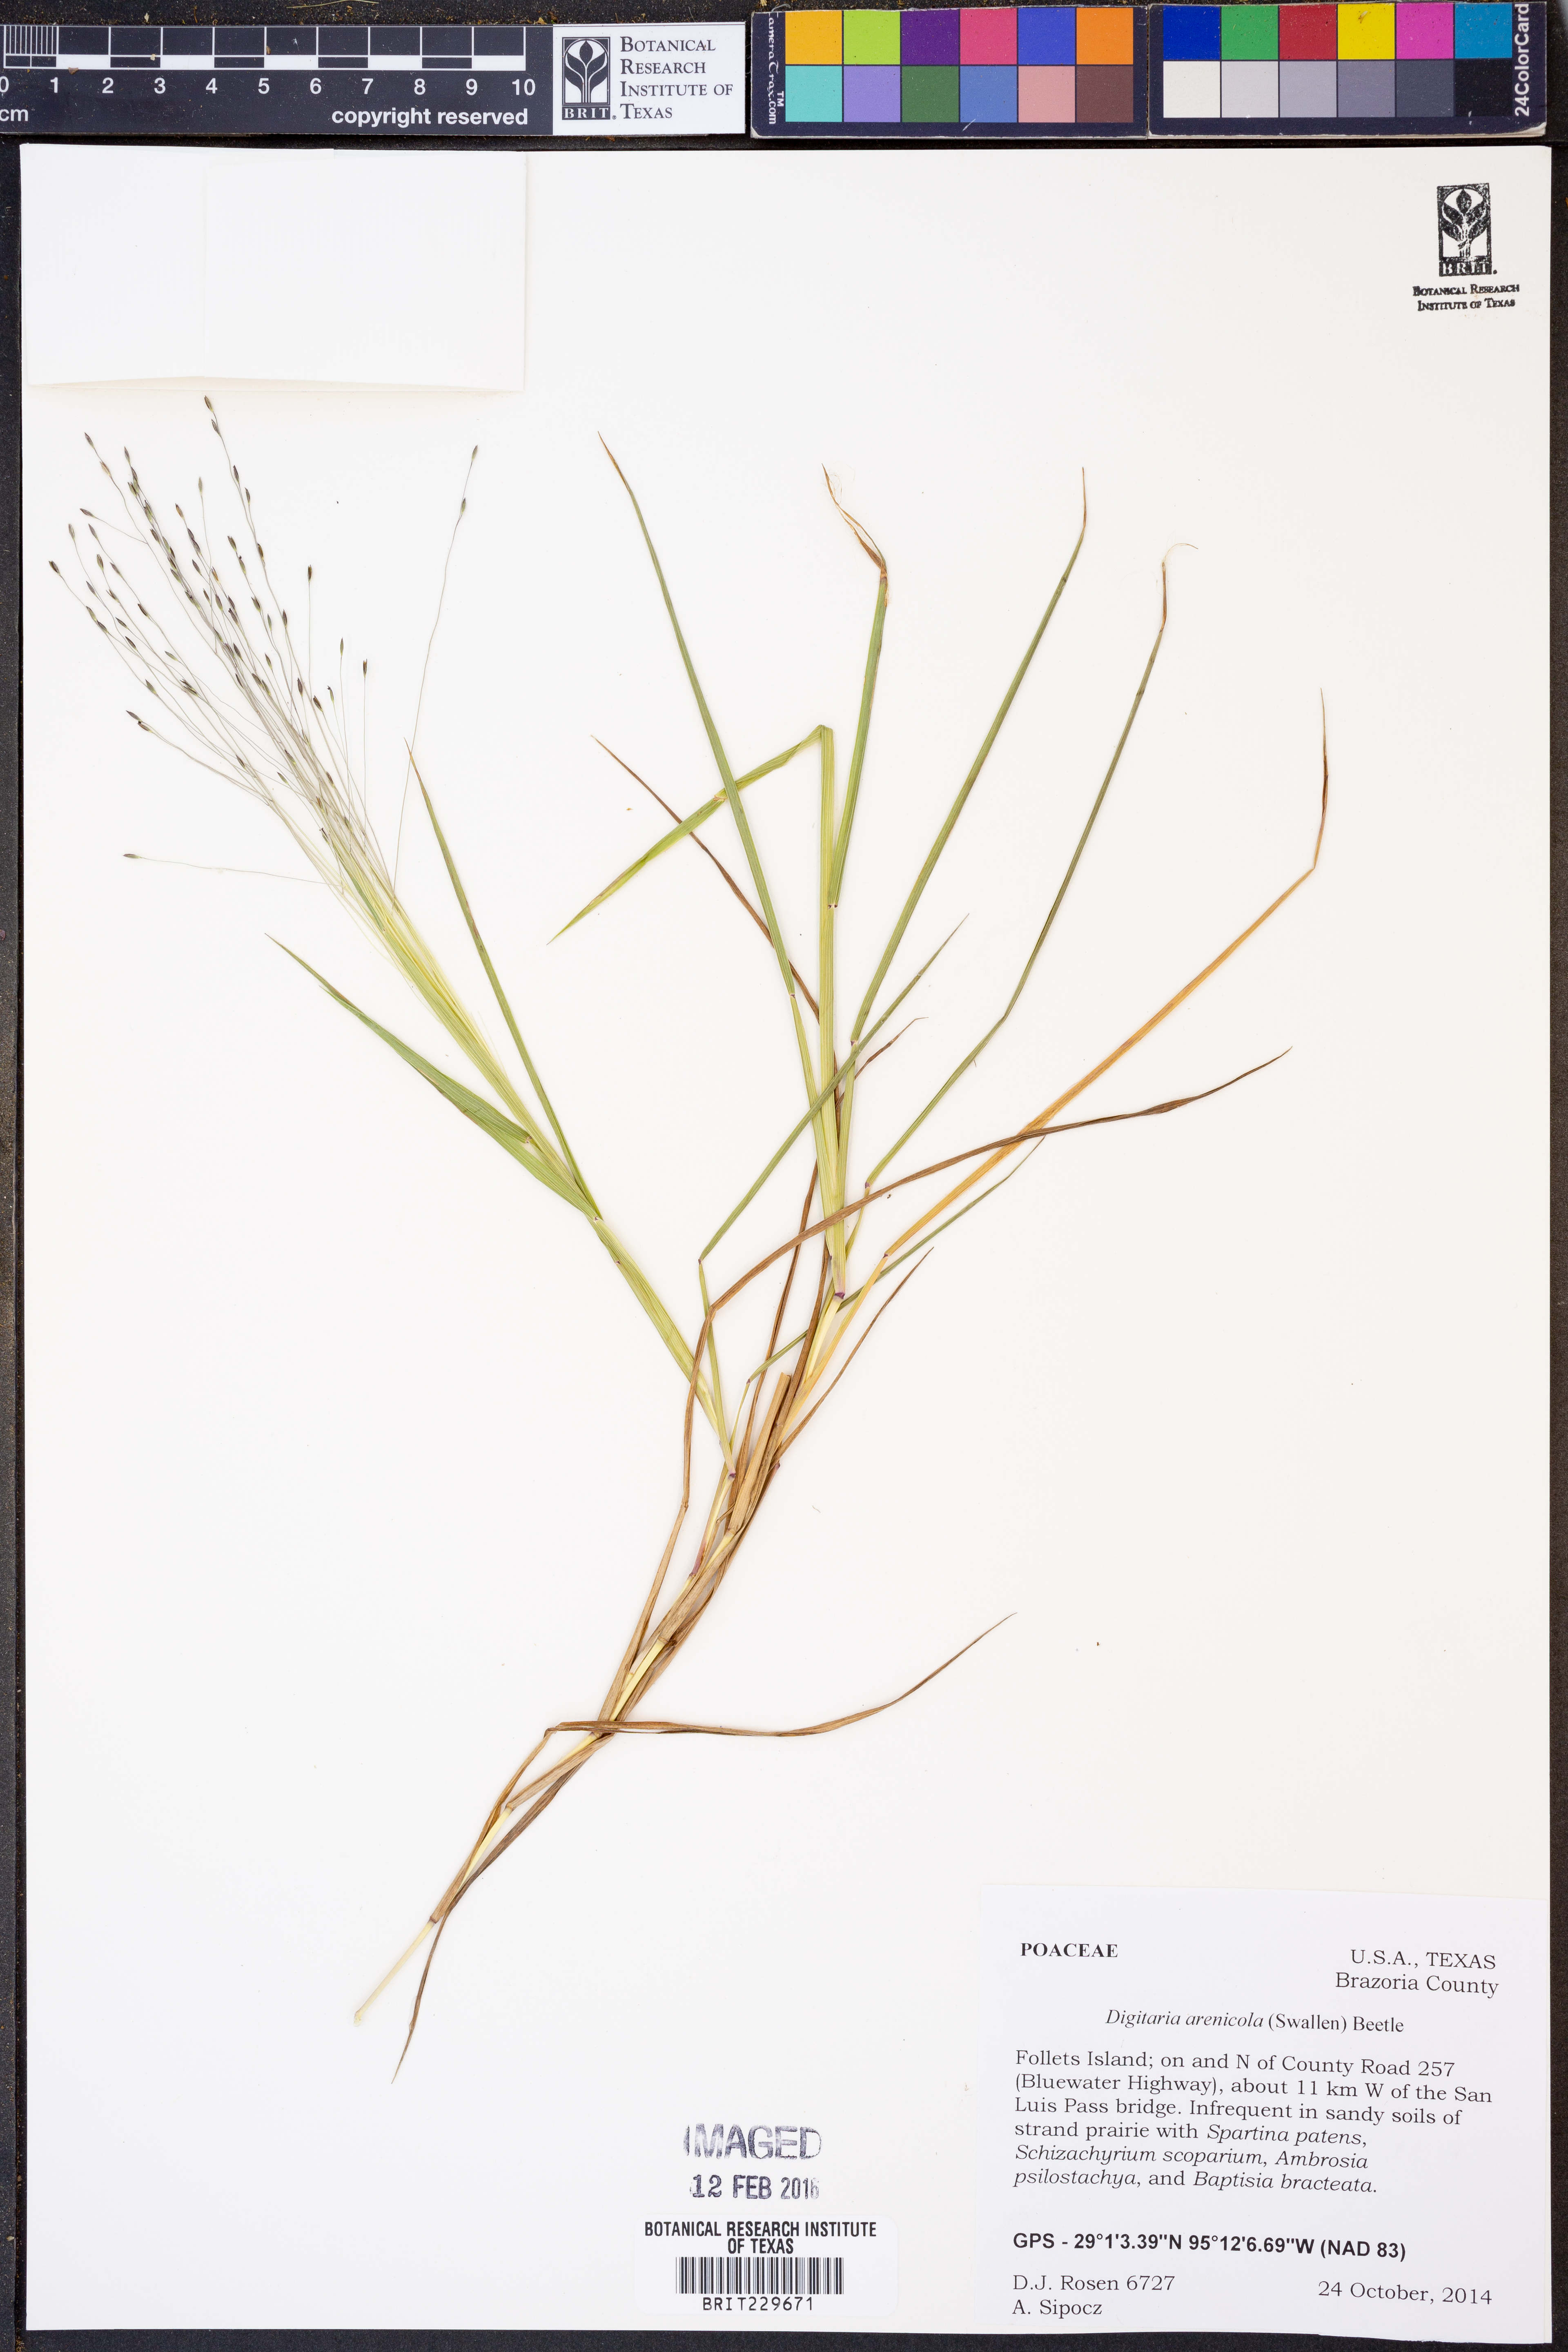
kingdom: Plantae
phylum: Tracheophyta
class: Liliopsida
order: Poales
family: Poaceae
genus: Digitaria
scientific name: Digitaria arenicola
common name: Sand witchgrass
